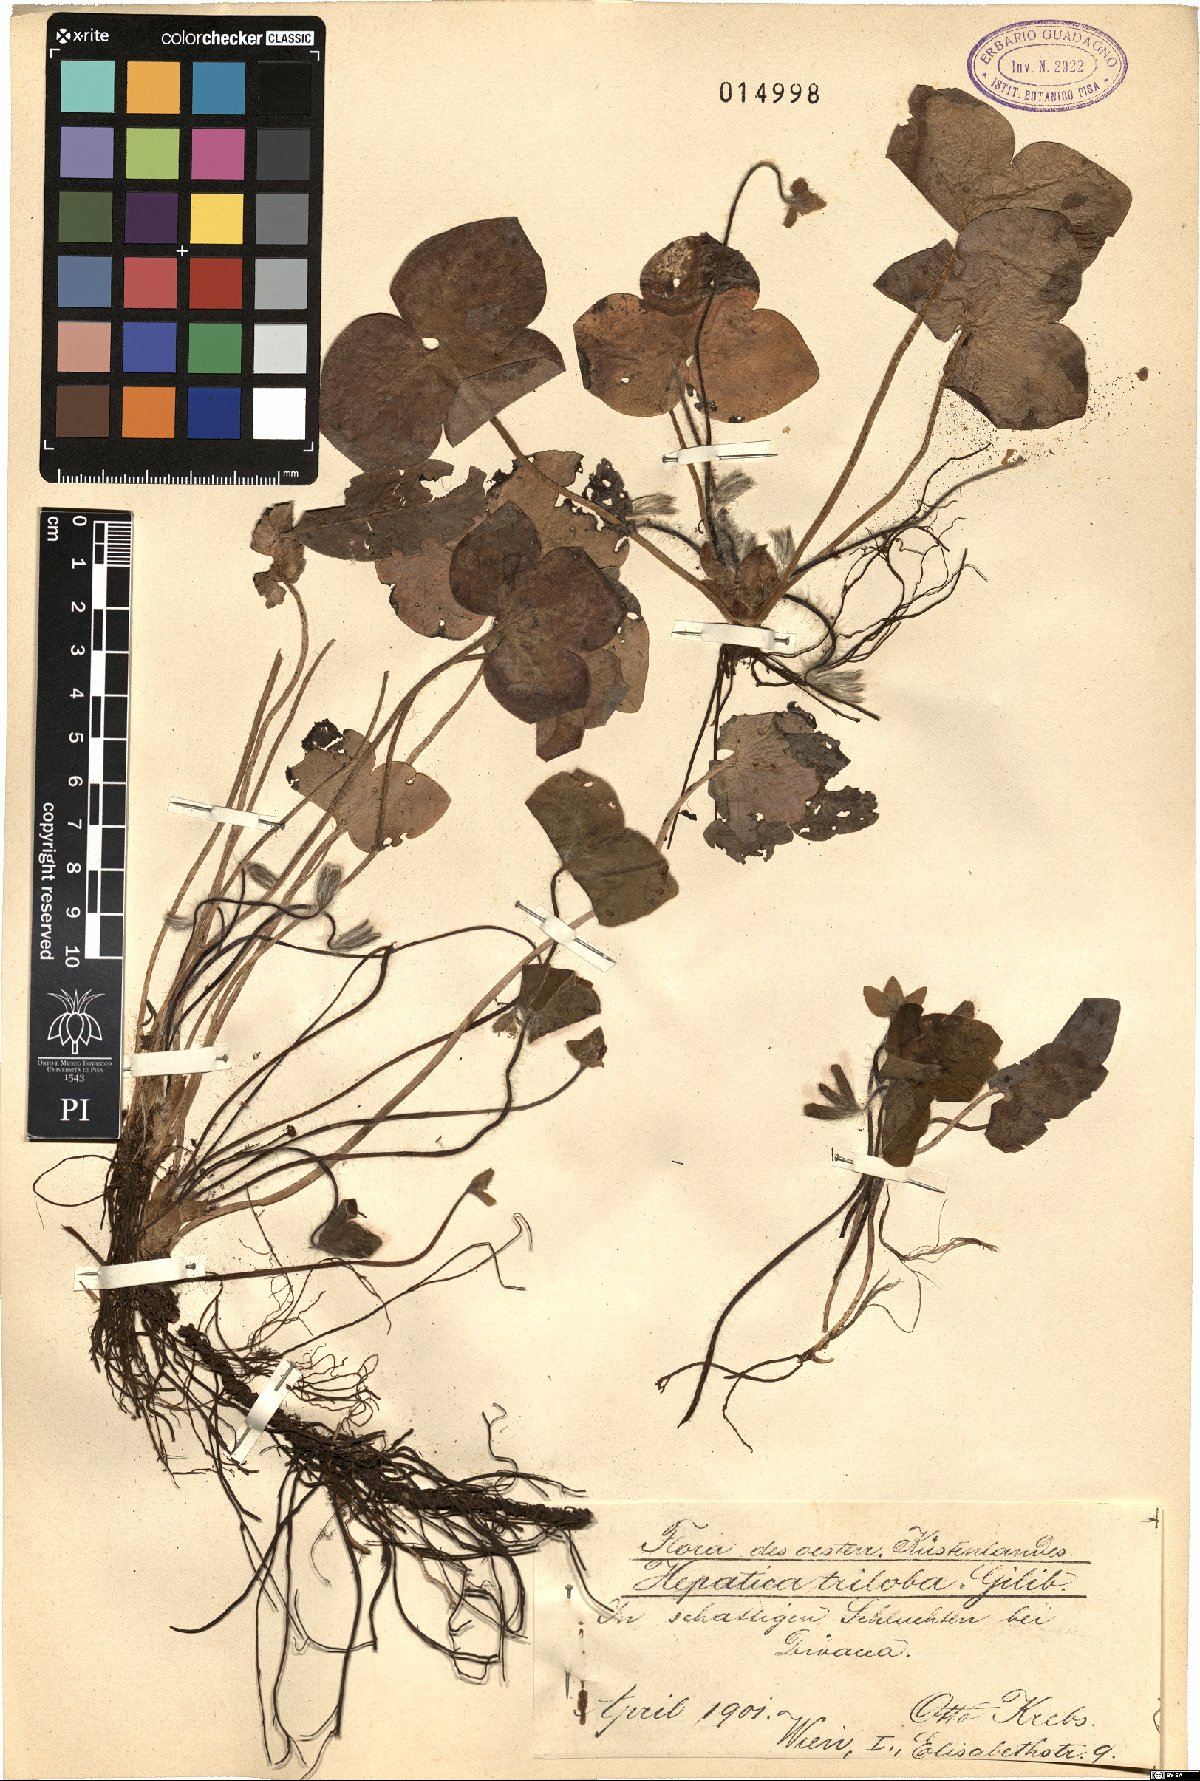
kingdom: Plantae
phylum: Tracheophyta
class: Magnoliopsida
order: Ranunculales
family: Ranunculaceae
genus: Hepatica
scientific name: Hepatica nobilis
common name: Liverleaf
